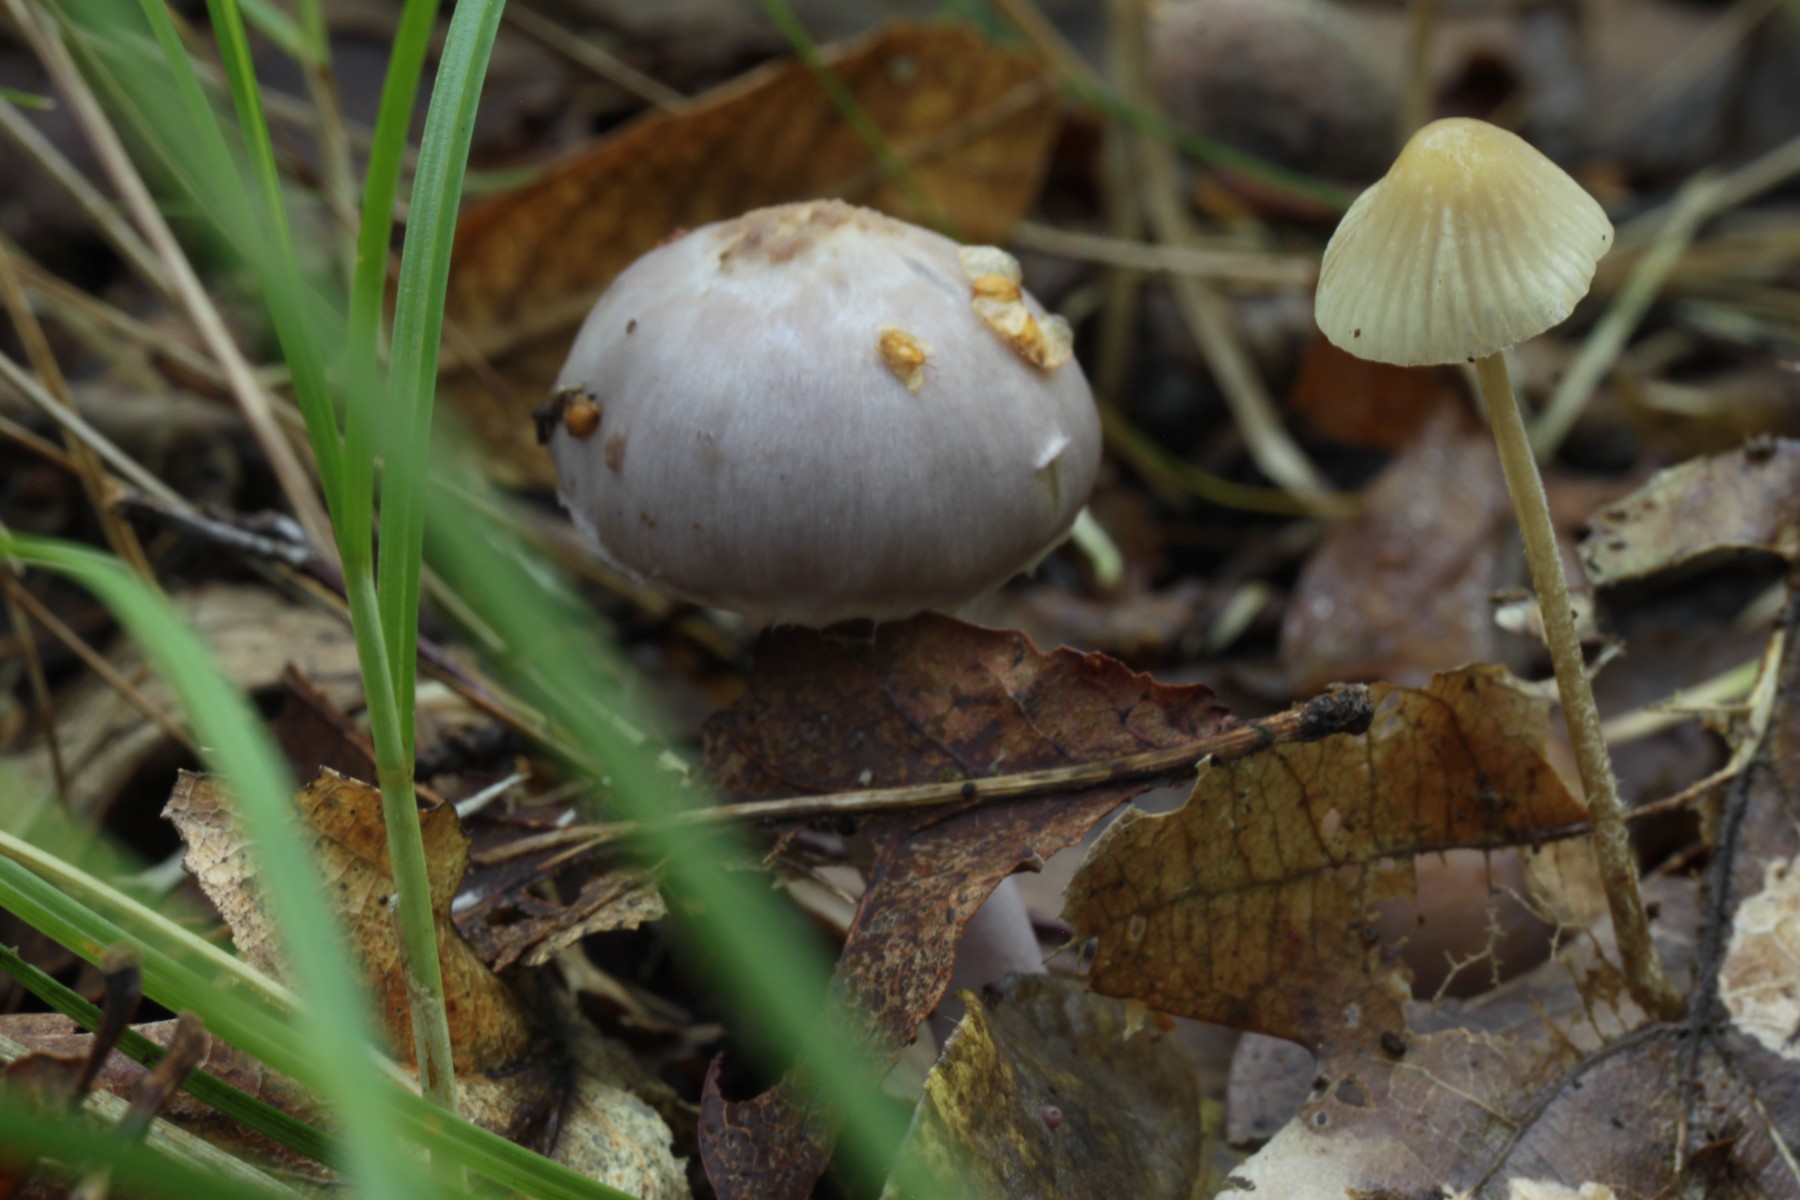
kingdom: Fungi
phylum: Basidiomycota
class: Agaricomycetes
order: Agaricales
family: Mycenaceae
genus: Mycena
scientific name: Mycena citrinomarginata
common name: gulægget huesvamp
